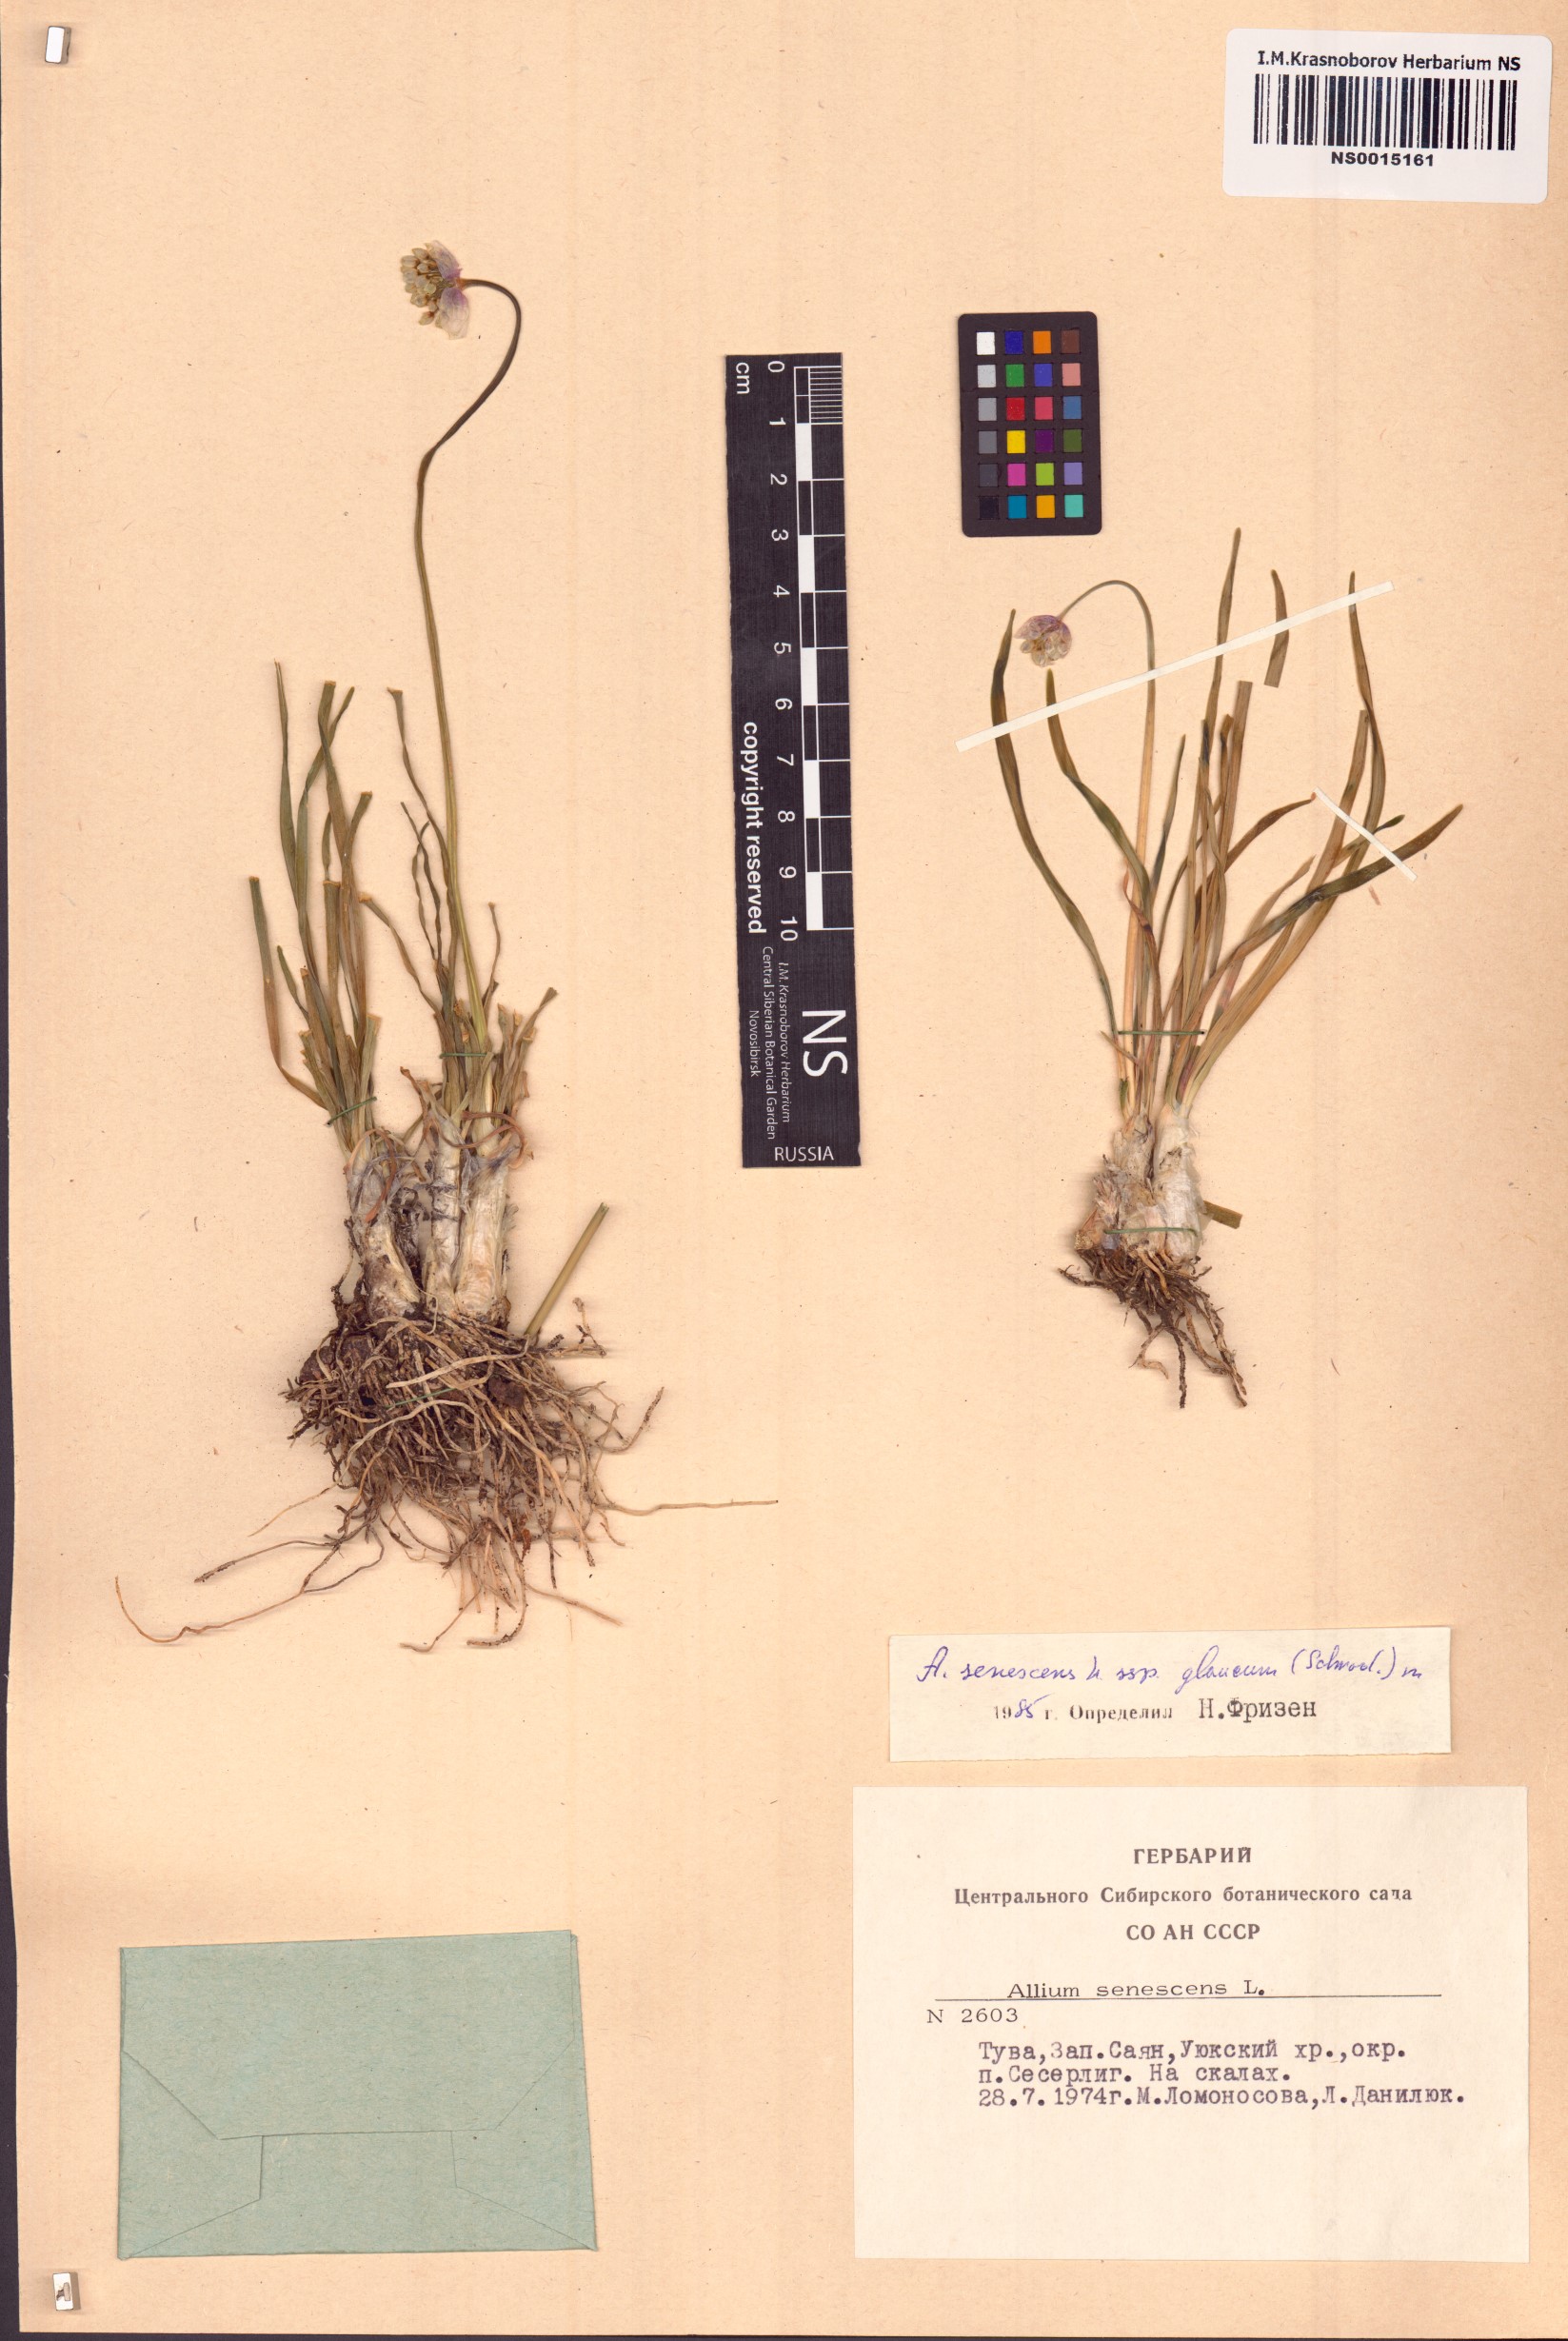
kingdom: Plantae
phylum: Tracheophyta
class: Liliopsida
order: Asparagales
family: Amaryllidaceae
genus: Allium
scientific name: Allium senescens
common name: German garlic
